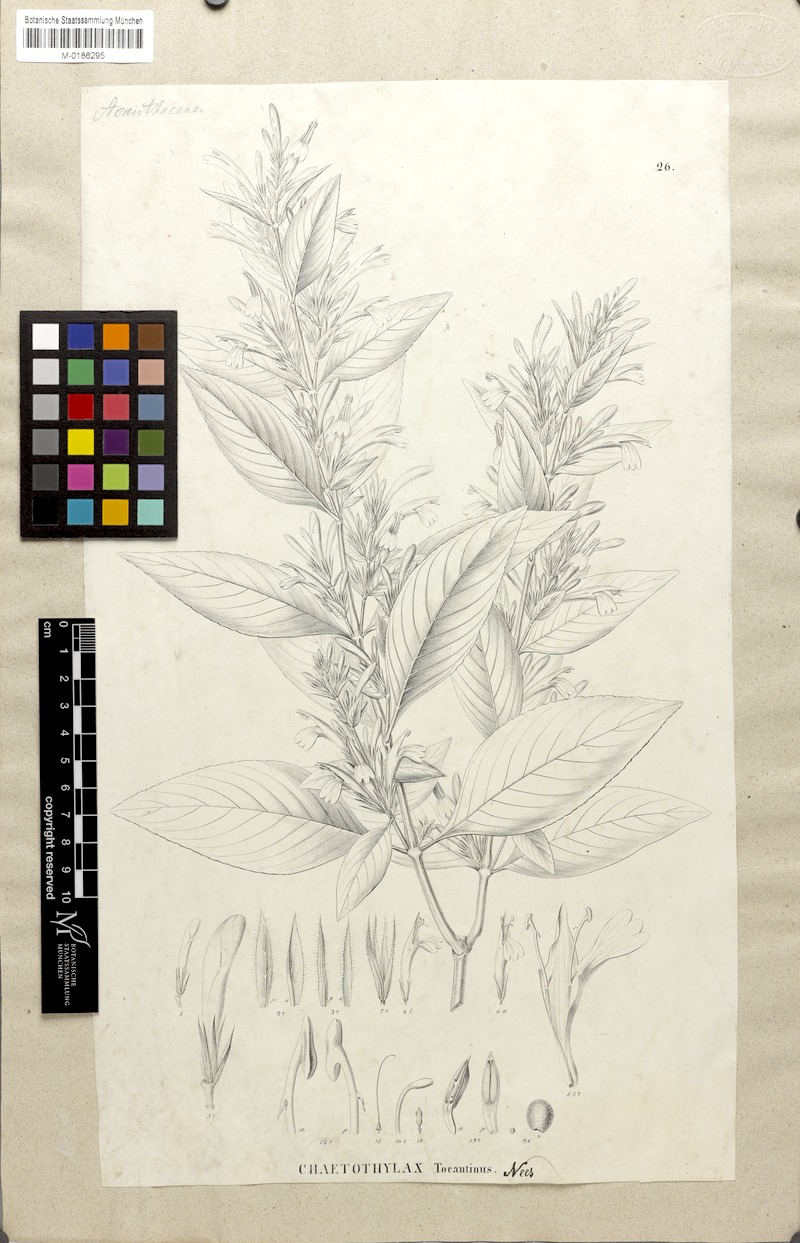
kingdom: Plantae
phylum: Tracheophyta
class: Magnoliopsida
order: Lamiales
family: Acanthaceae
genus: Justicia
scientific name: Justicia tocantina
